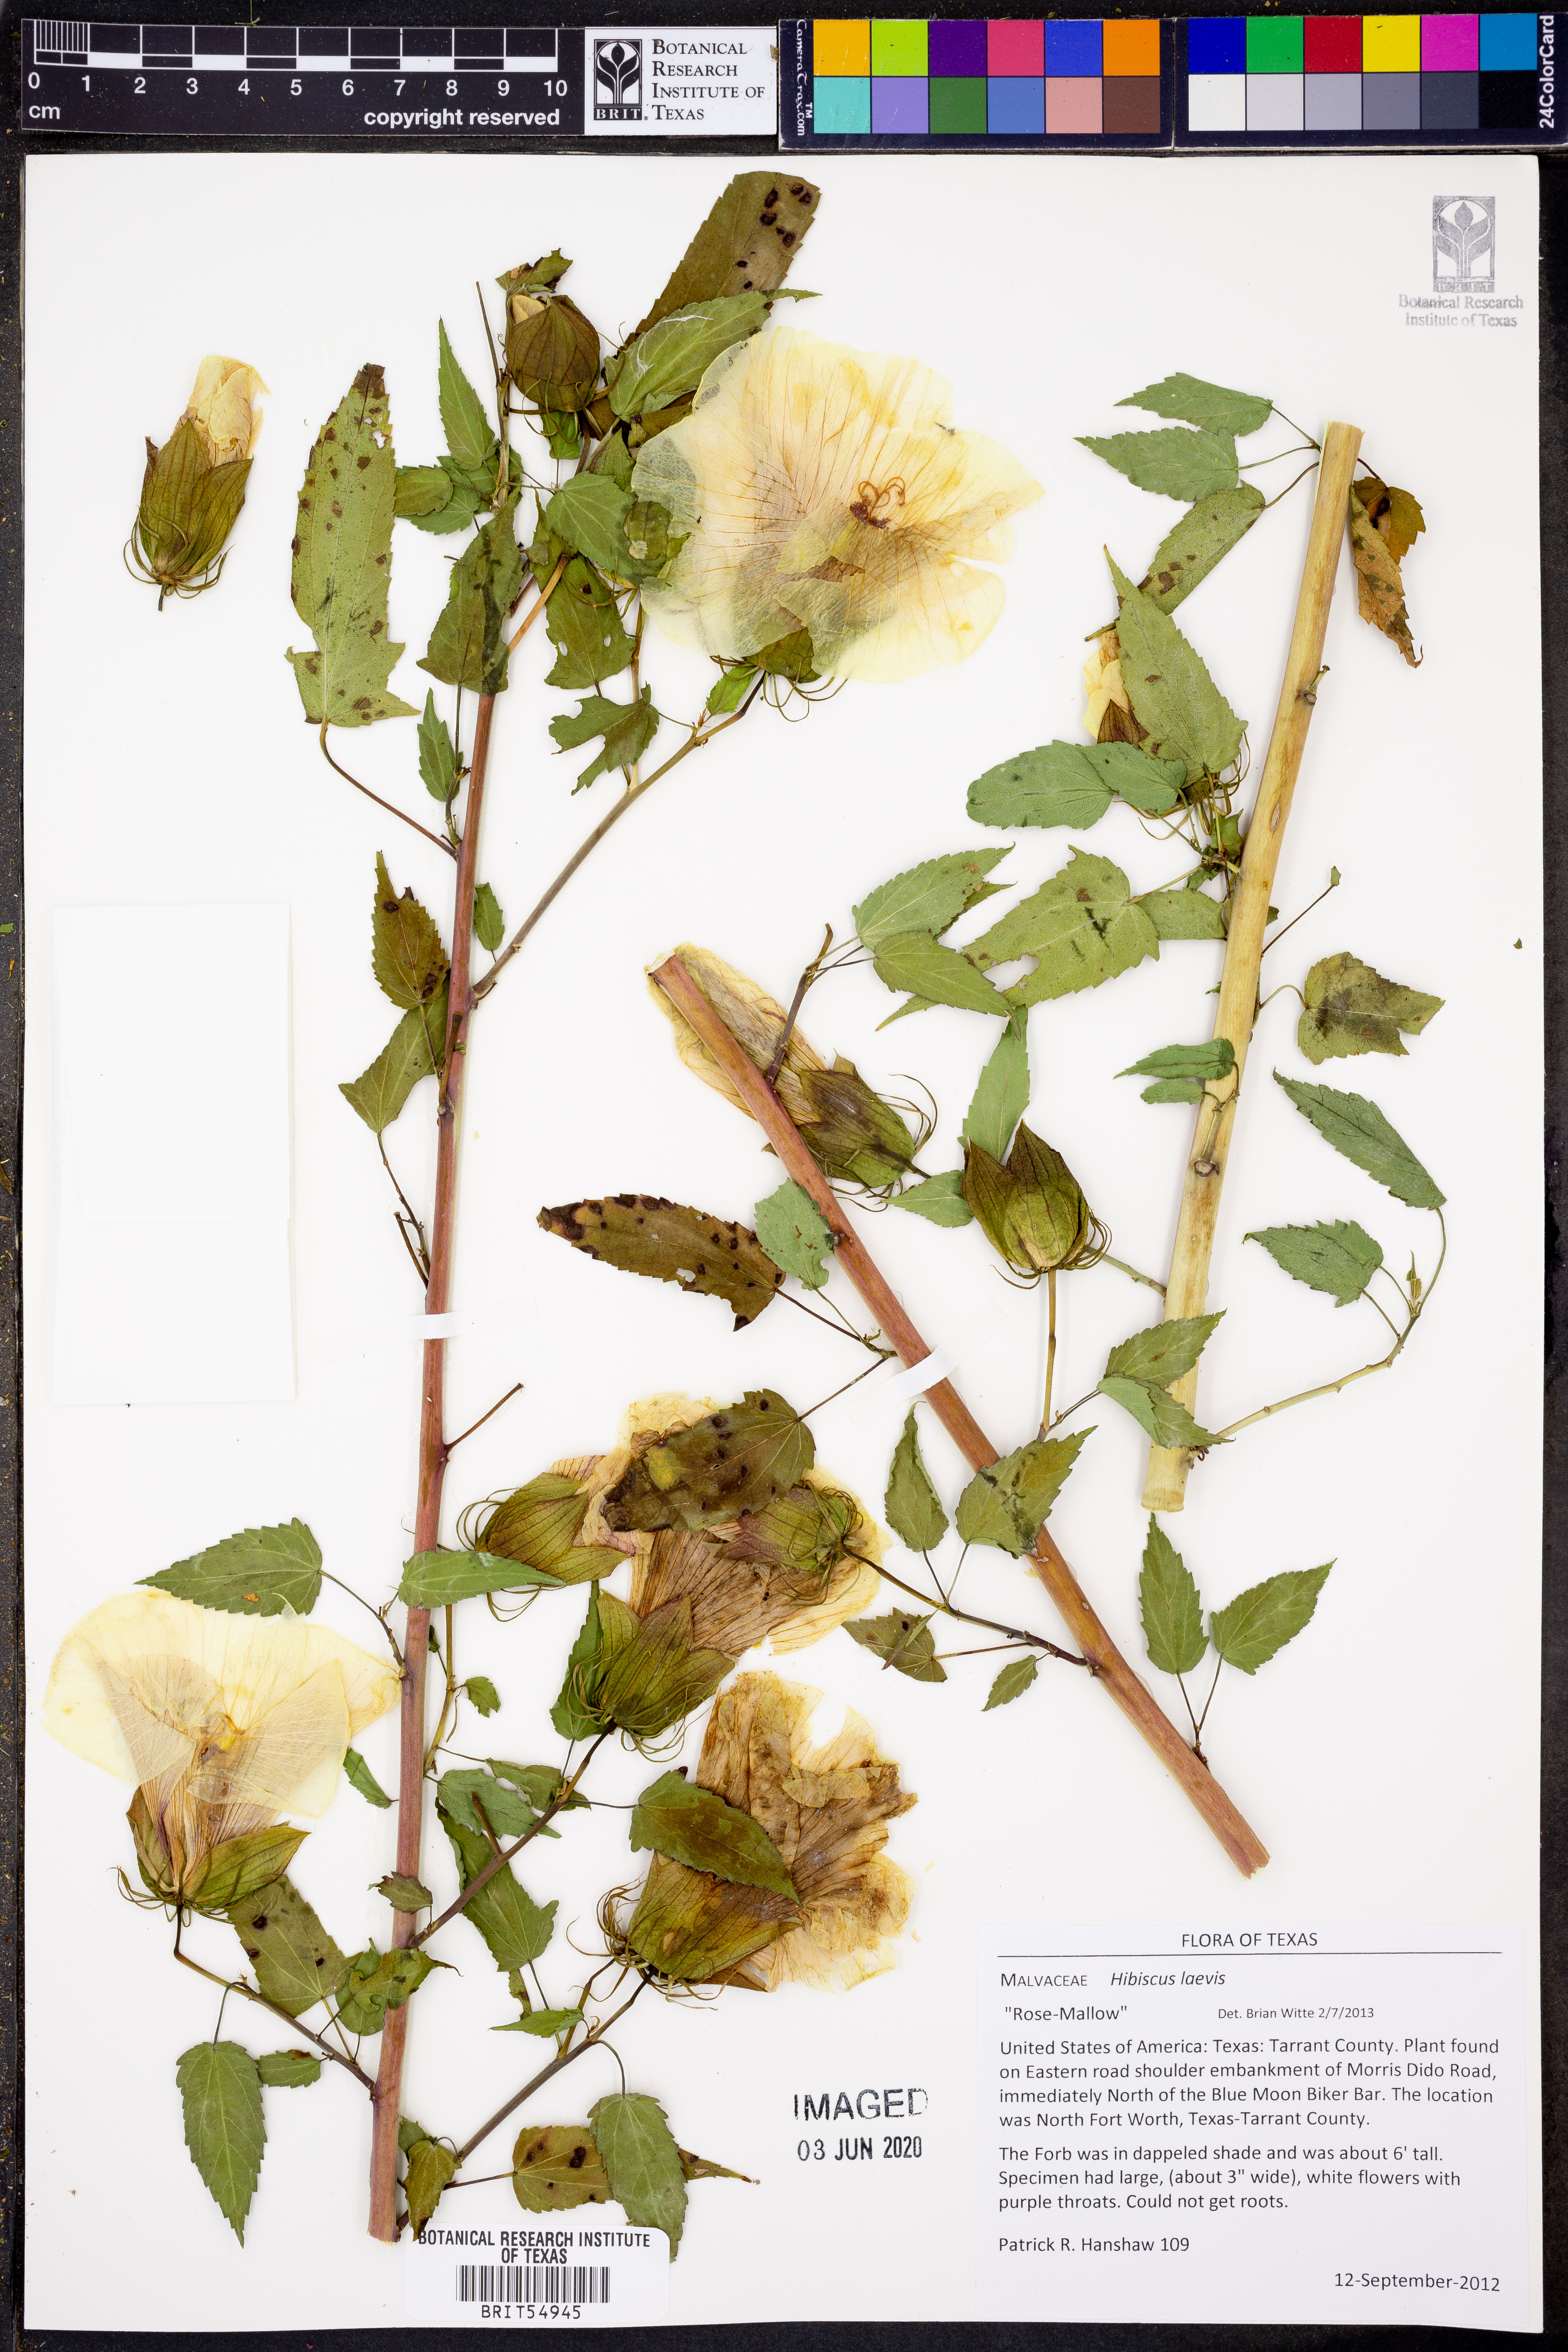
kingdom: Plantae
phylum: Tracheophyta
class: Magnoliopsida
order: Malvales
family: Malvaceae
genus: Hibiscus
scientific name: Hibiscus laevis
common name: Scarlet rose-mallow
